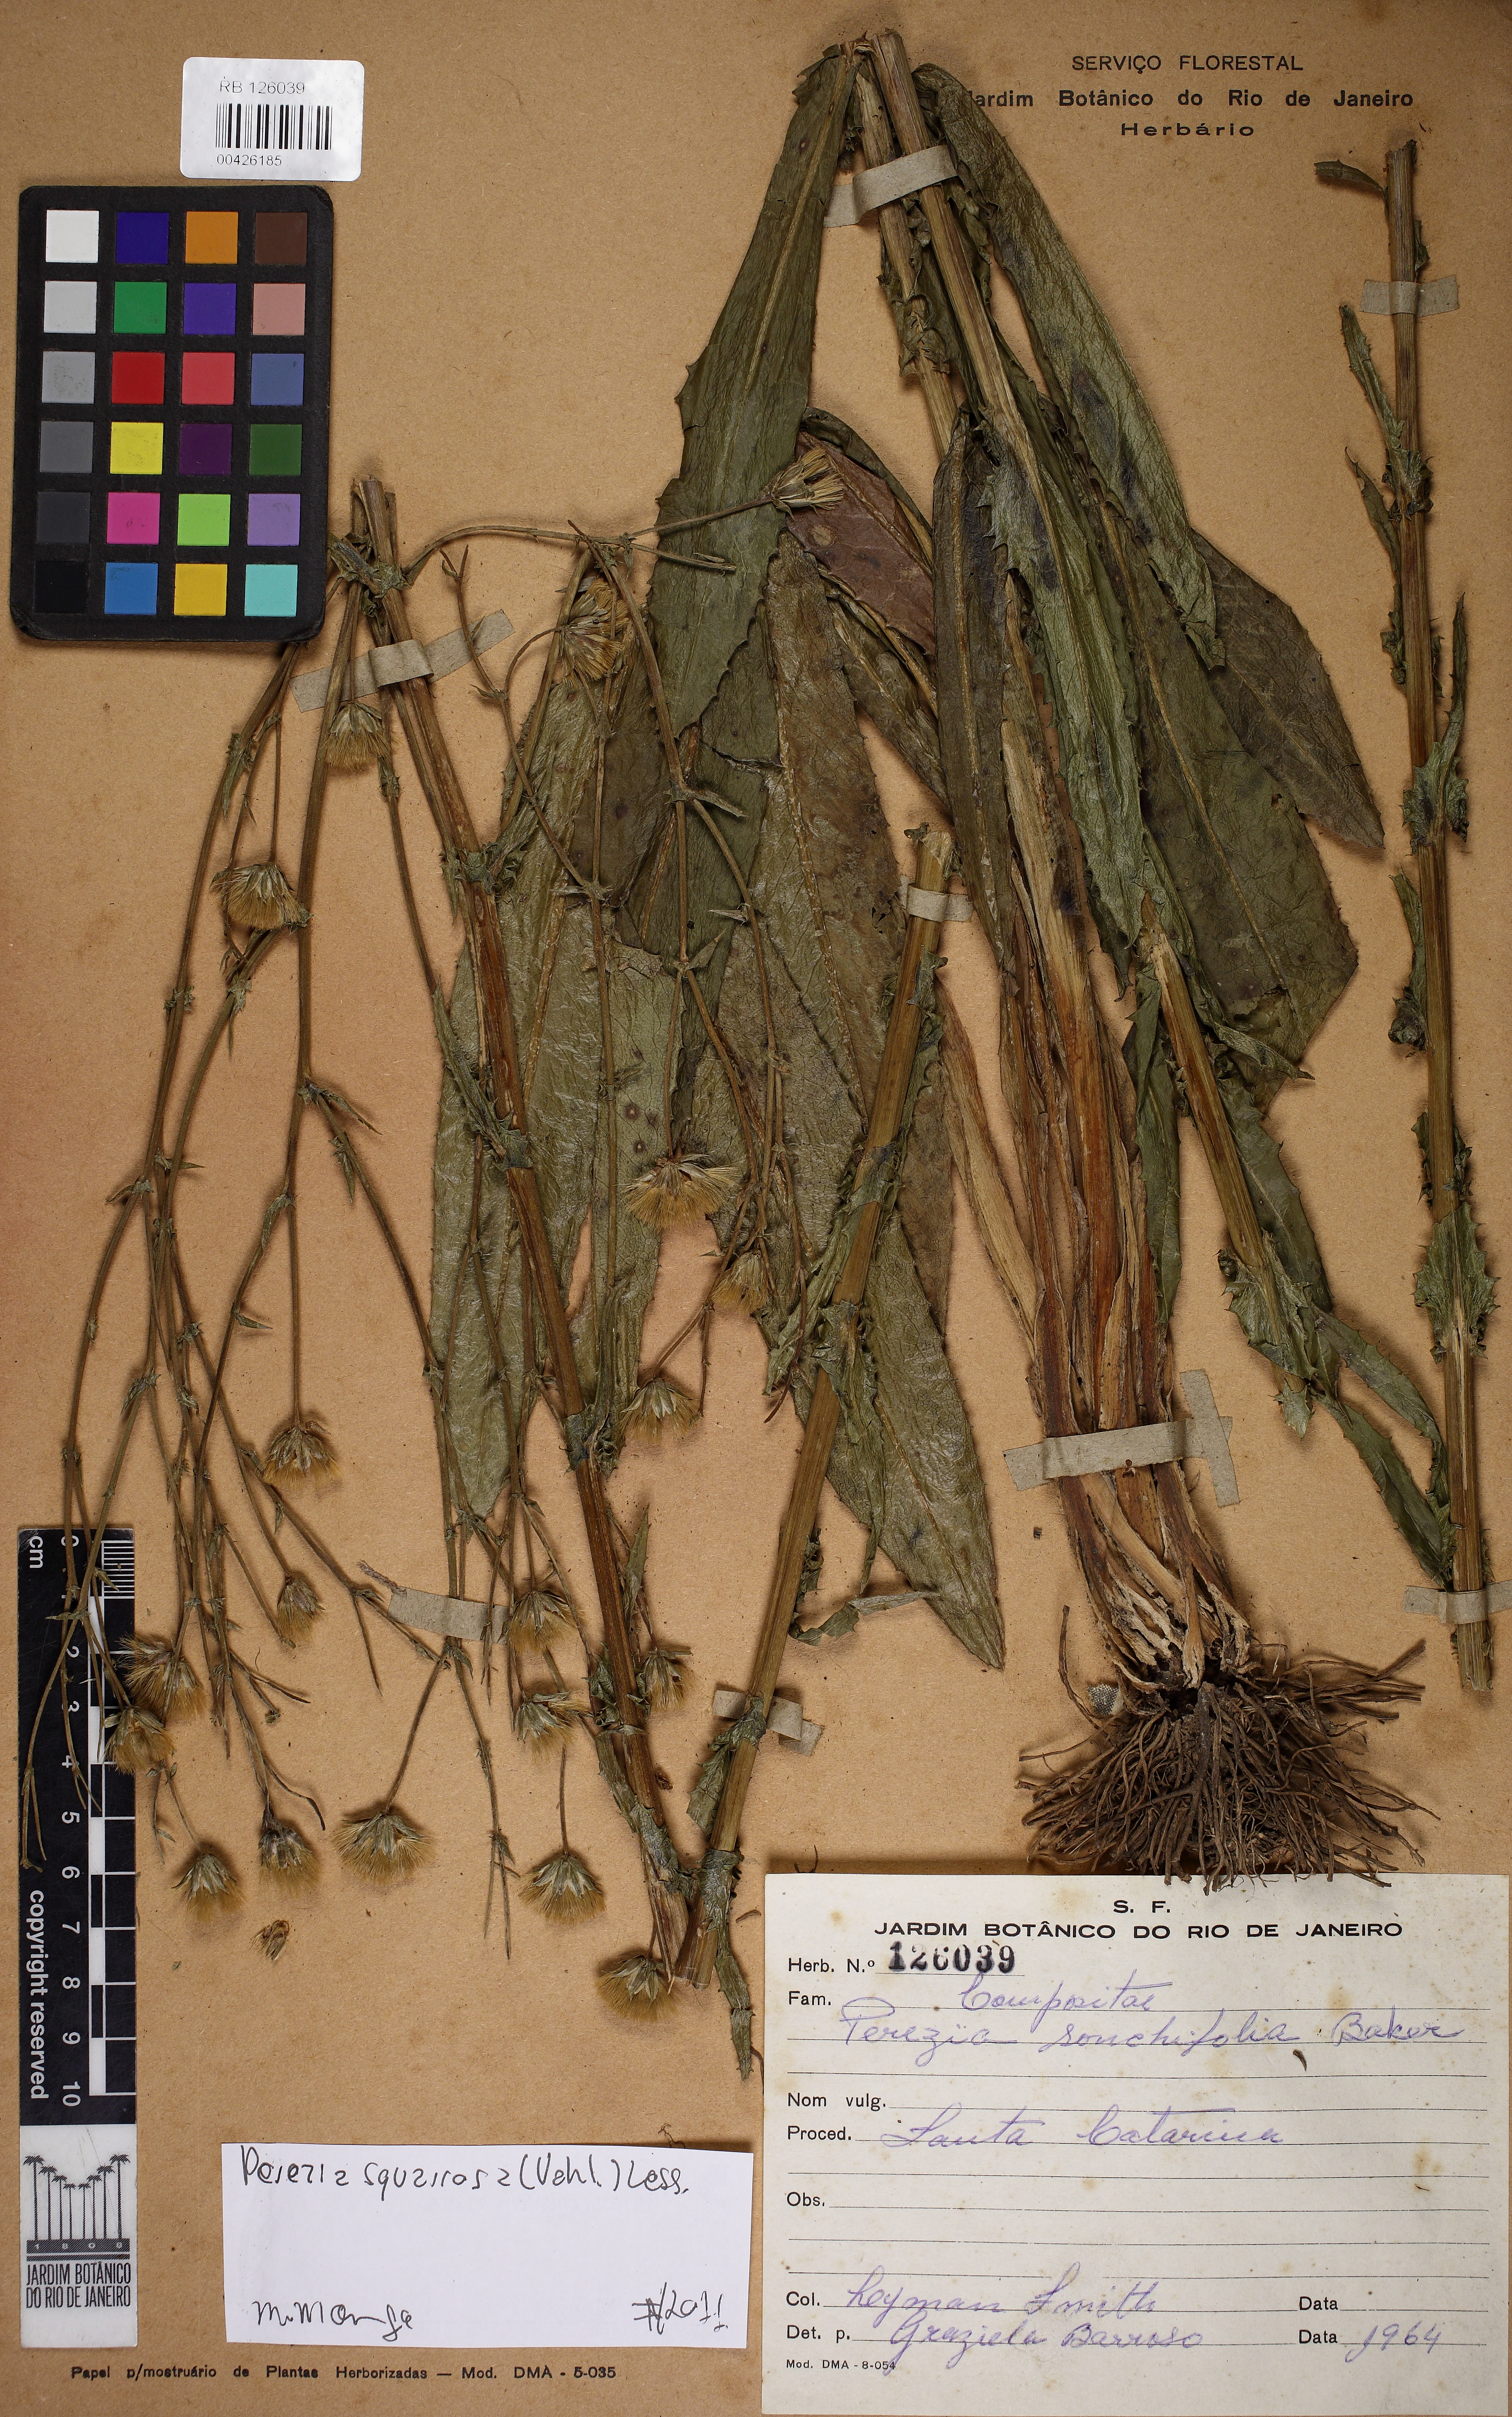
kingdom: Plantae
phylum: Tracheophyta
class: Magnoliopsida
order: Asterales
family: Asteraceae
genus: Perezia
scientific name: Perezia squarrosa
